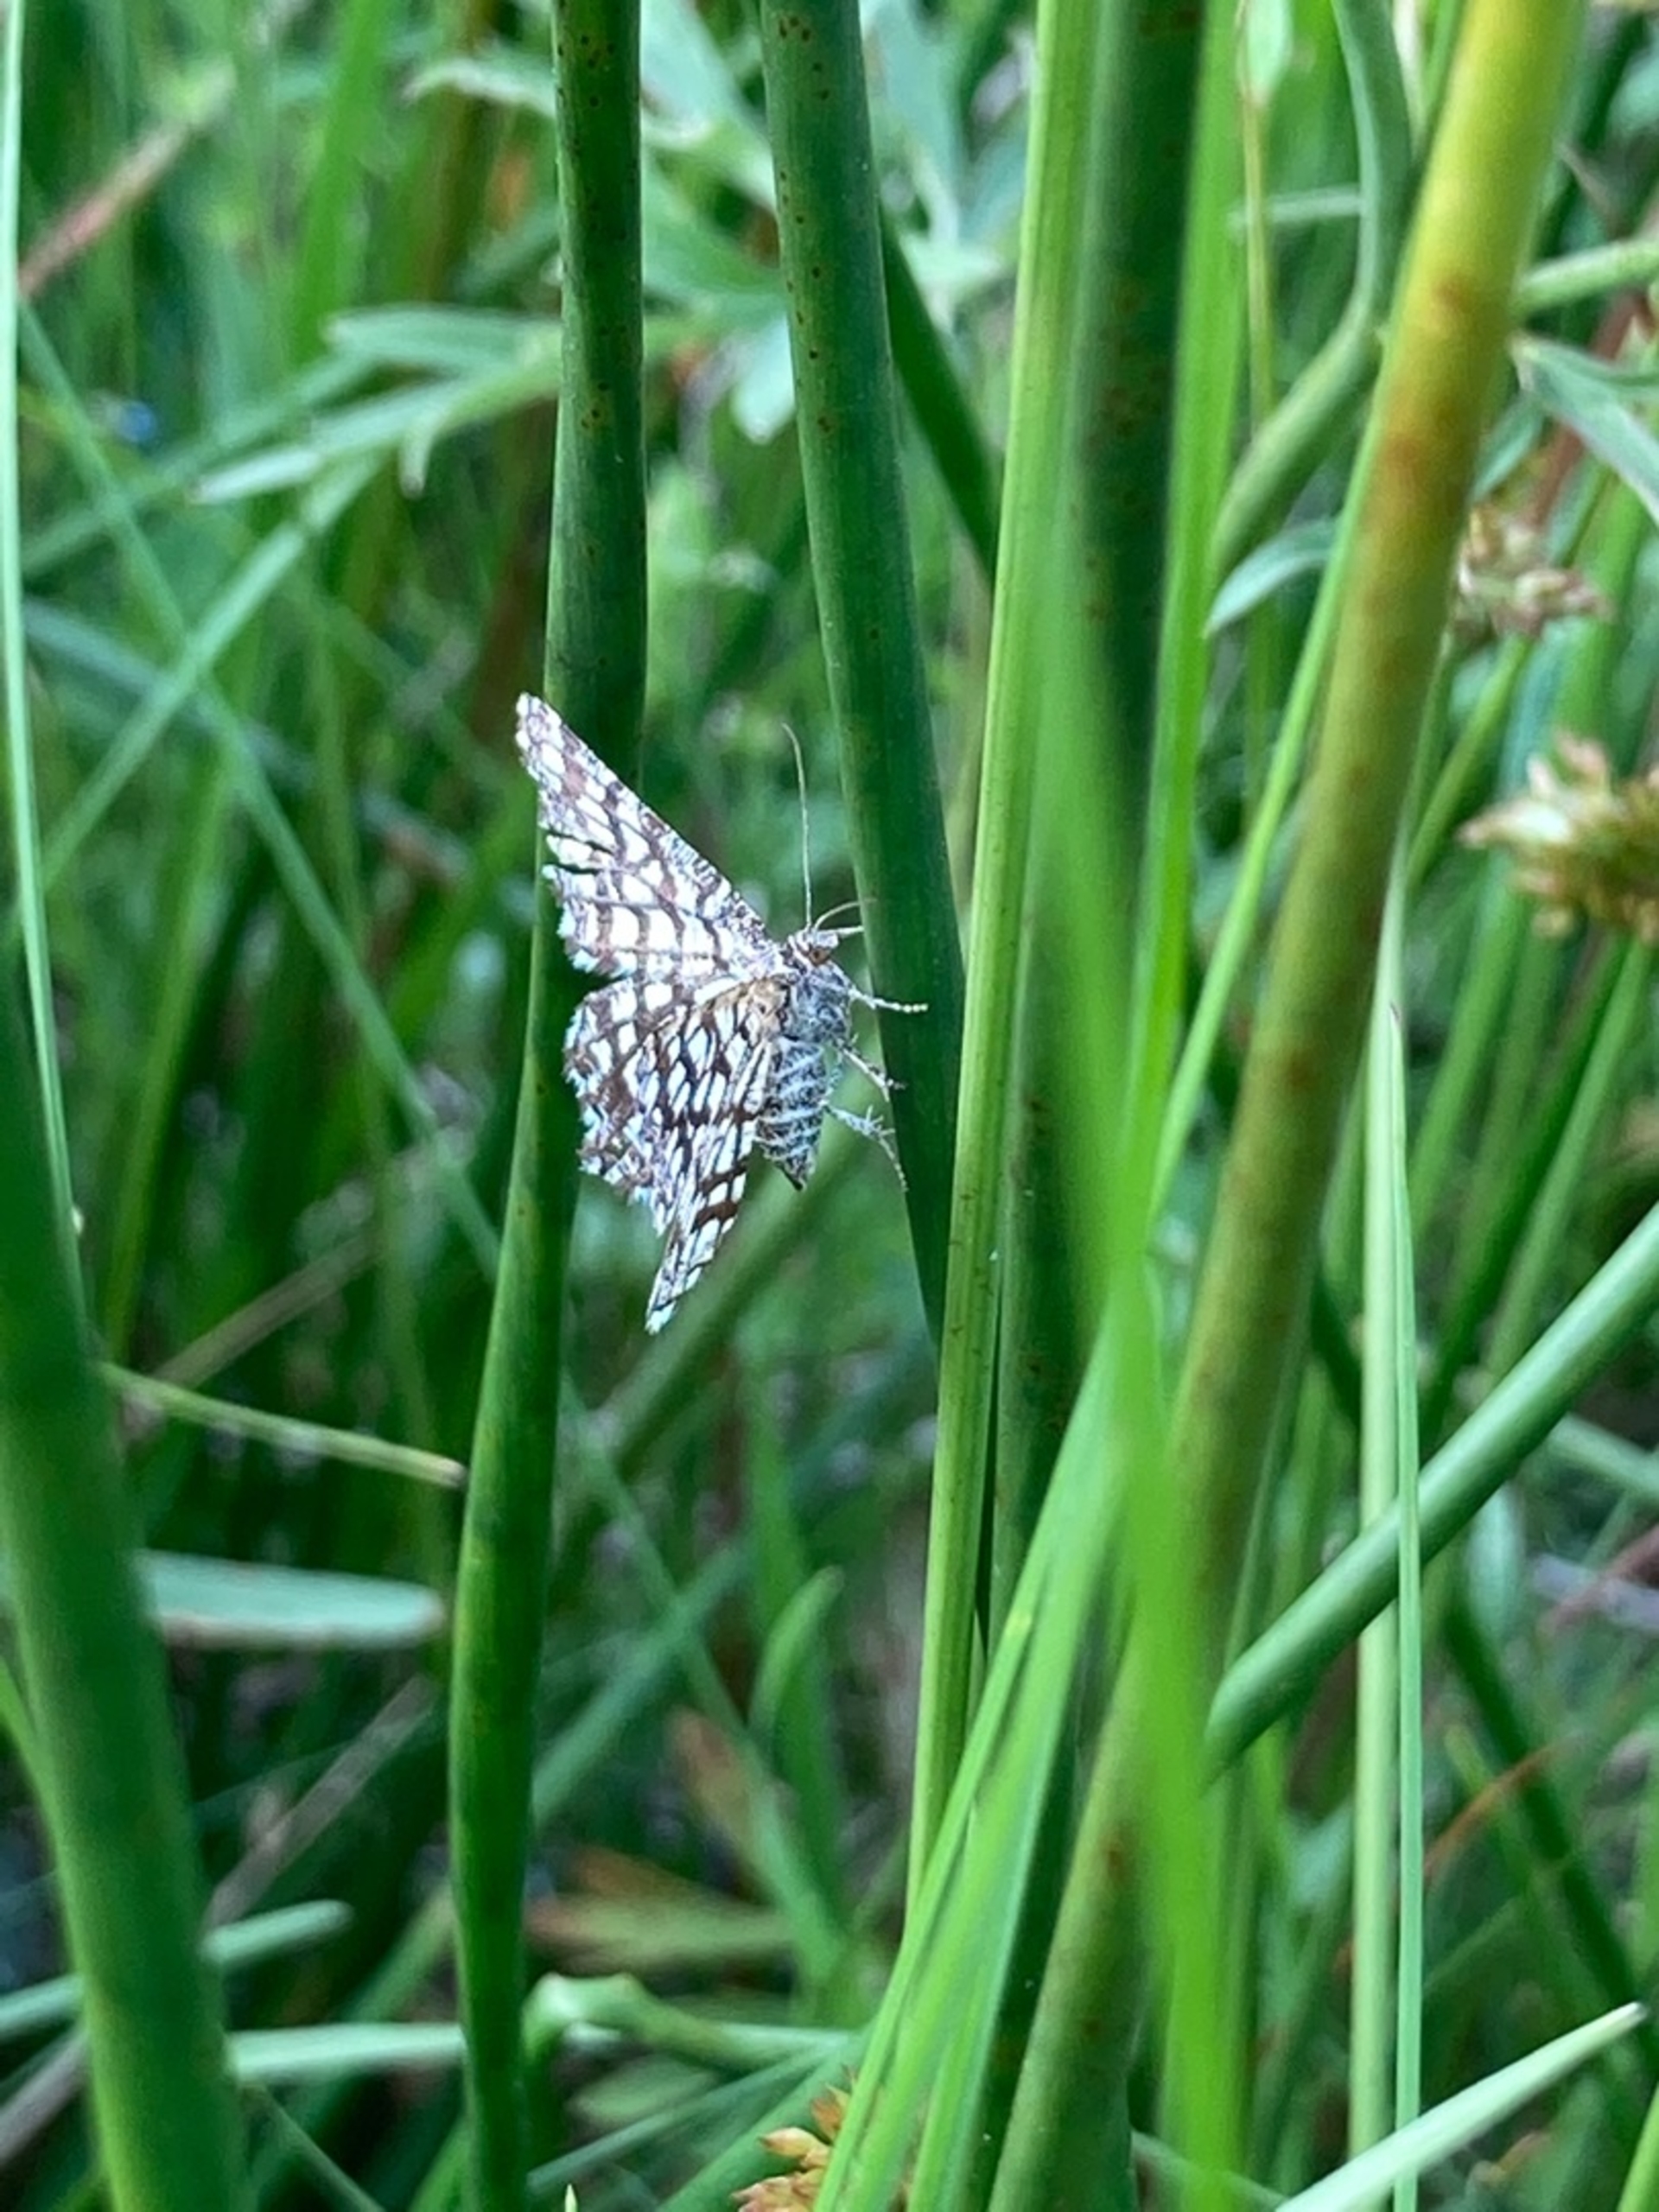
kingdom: Animalia
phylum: Arthropoda
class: Insecta
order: Lepidoptera
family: Geometridae
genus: Chiasmia
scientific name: Chiasmia clathrata
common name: Kløvermåler
